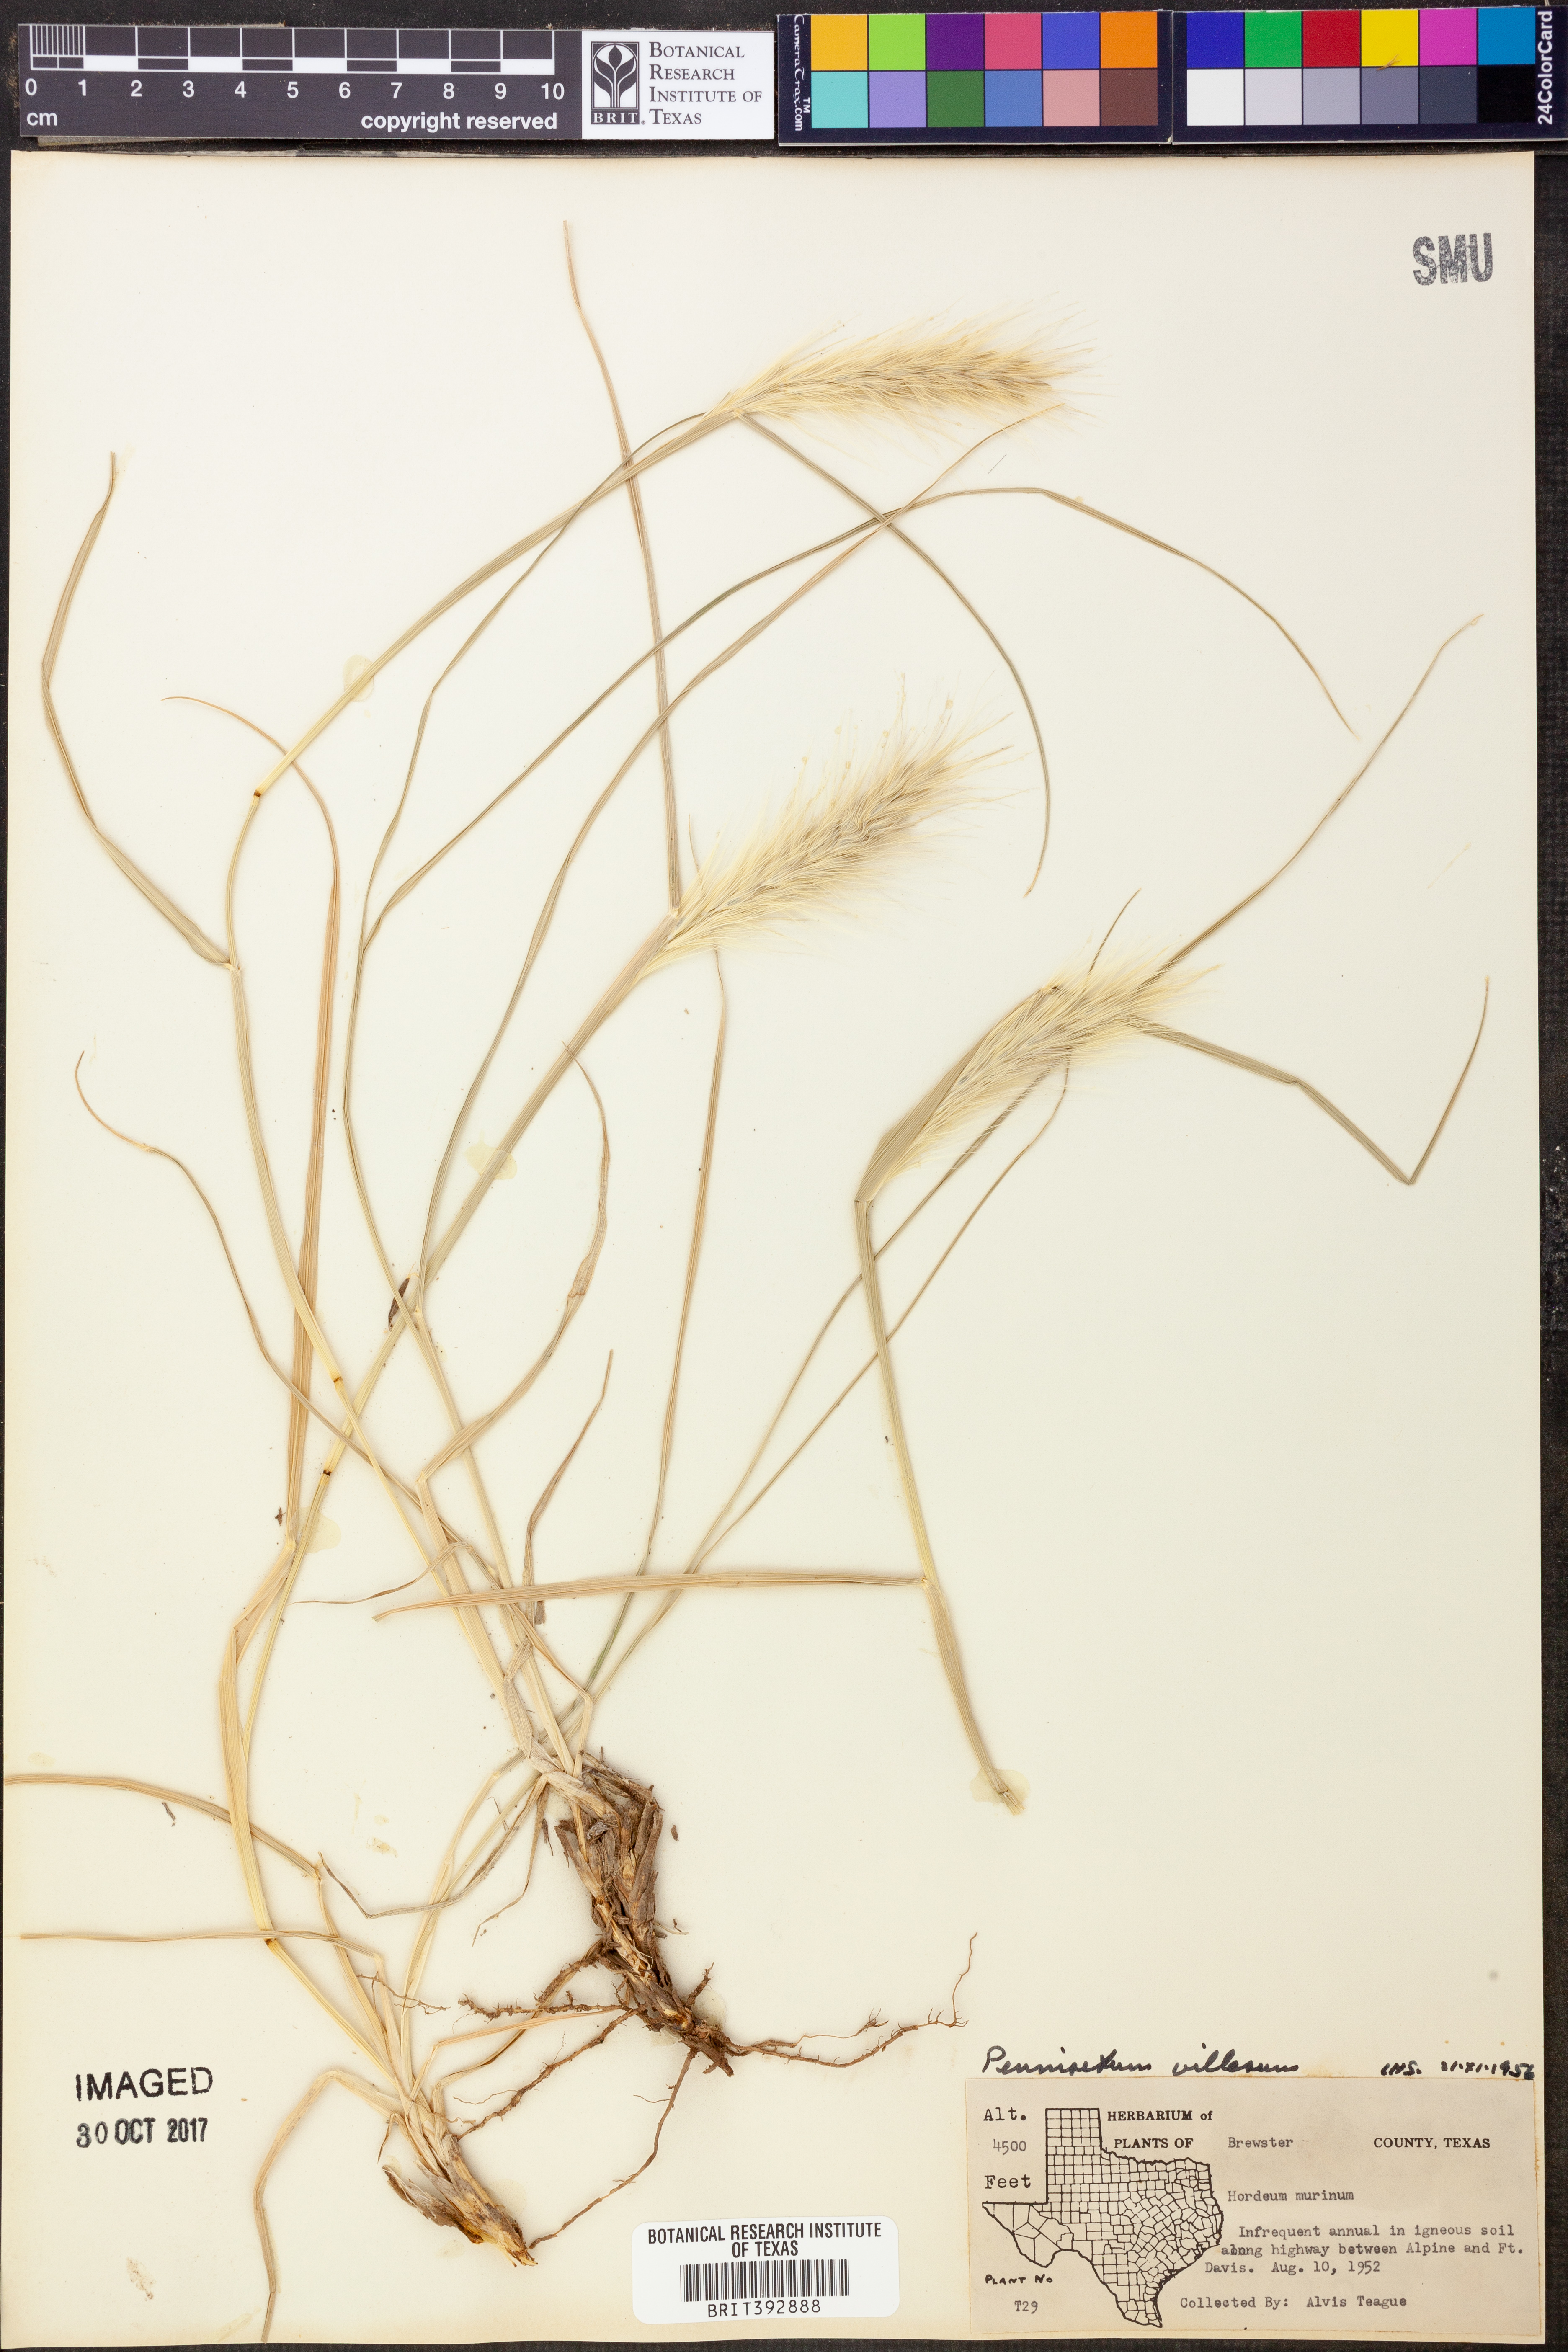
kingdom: Plantae
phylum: Tracheophyta
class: Liliopsida
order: Poales
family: Poaceae
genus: Cenchrus
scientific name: Cenchrus longisetus
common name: Feathertop
